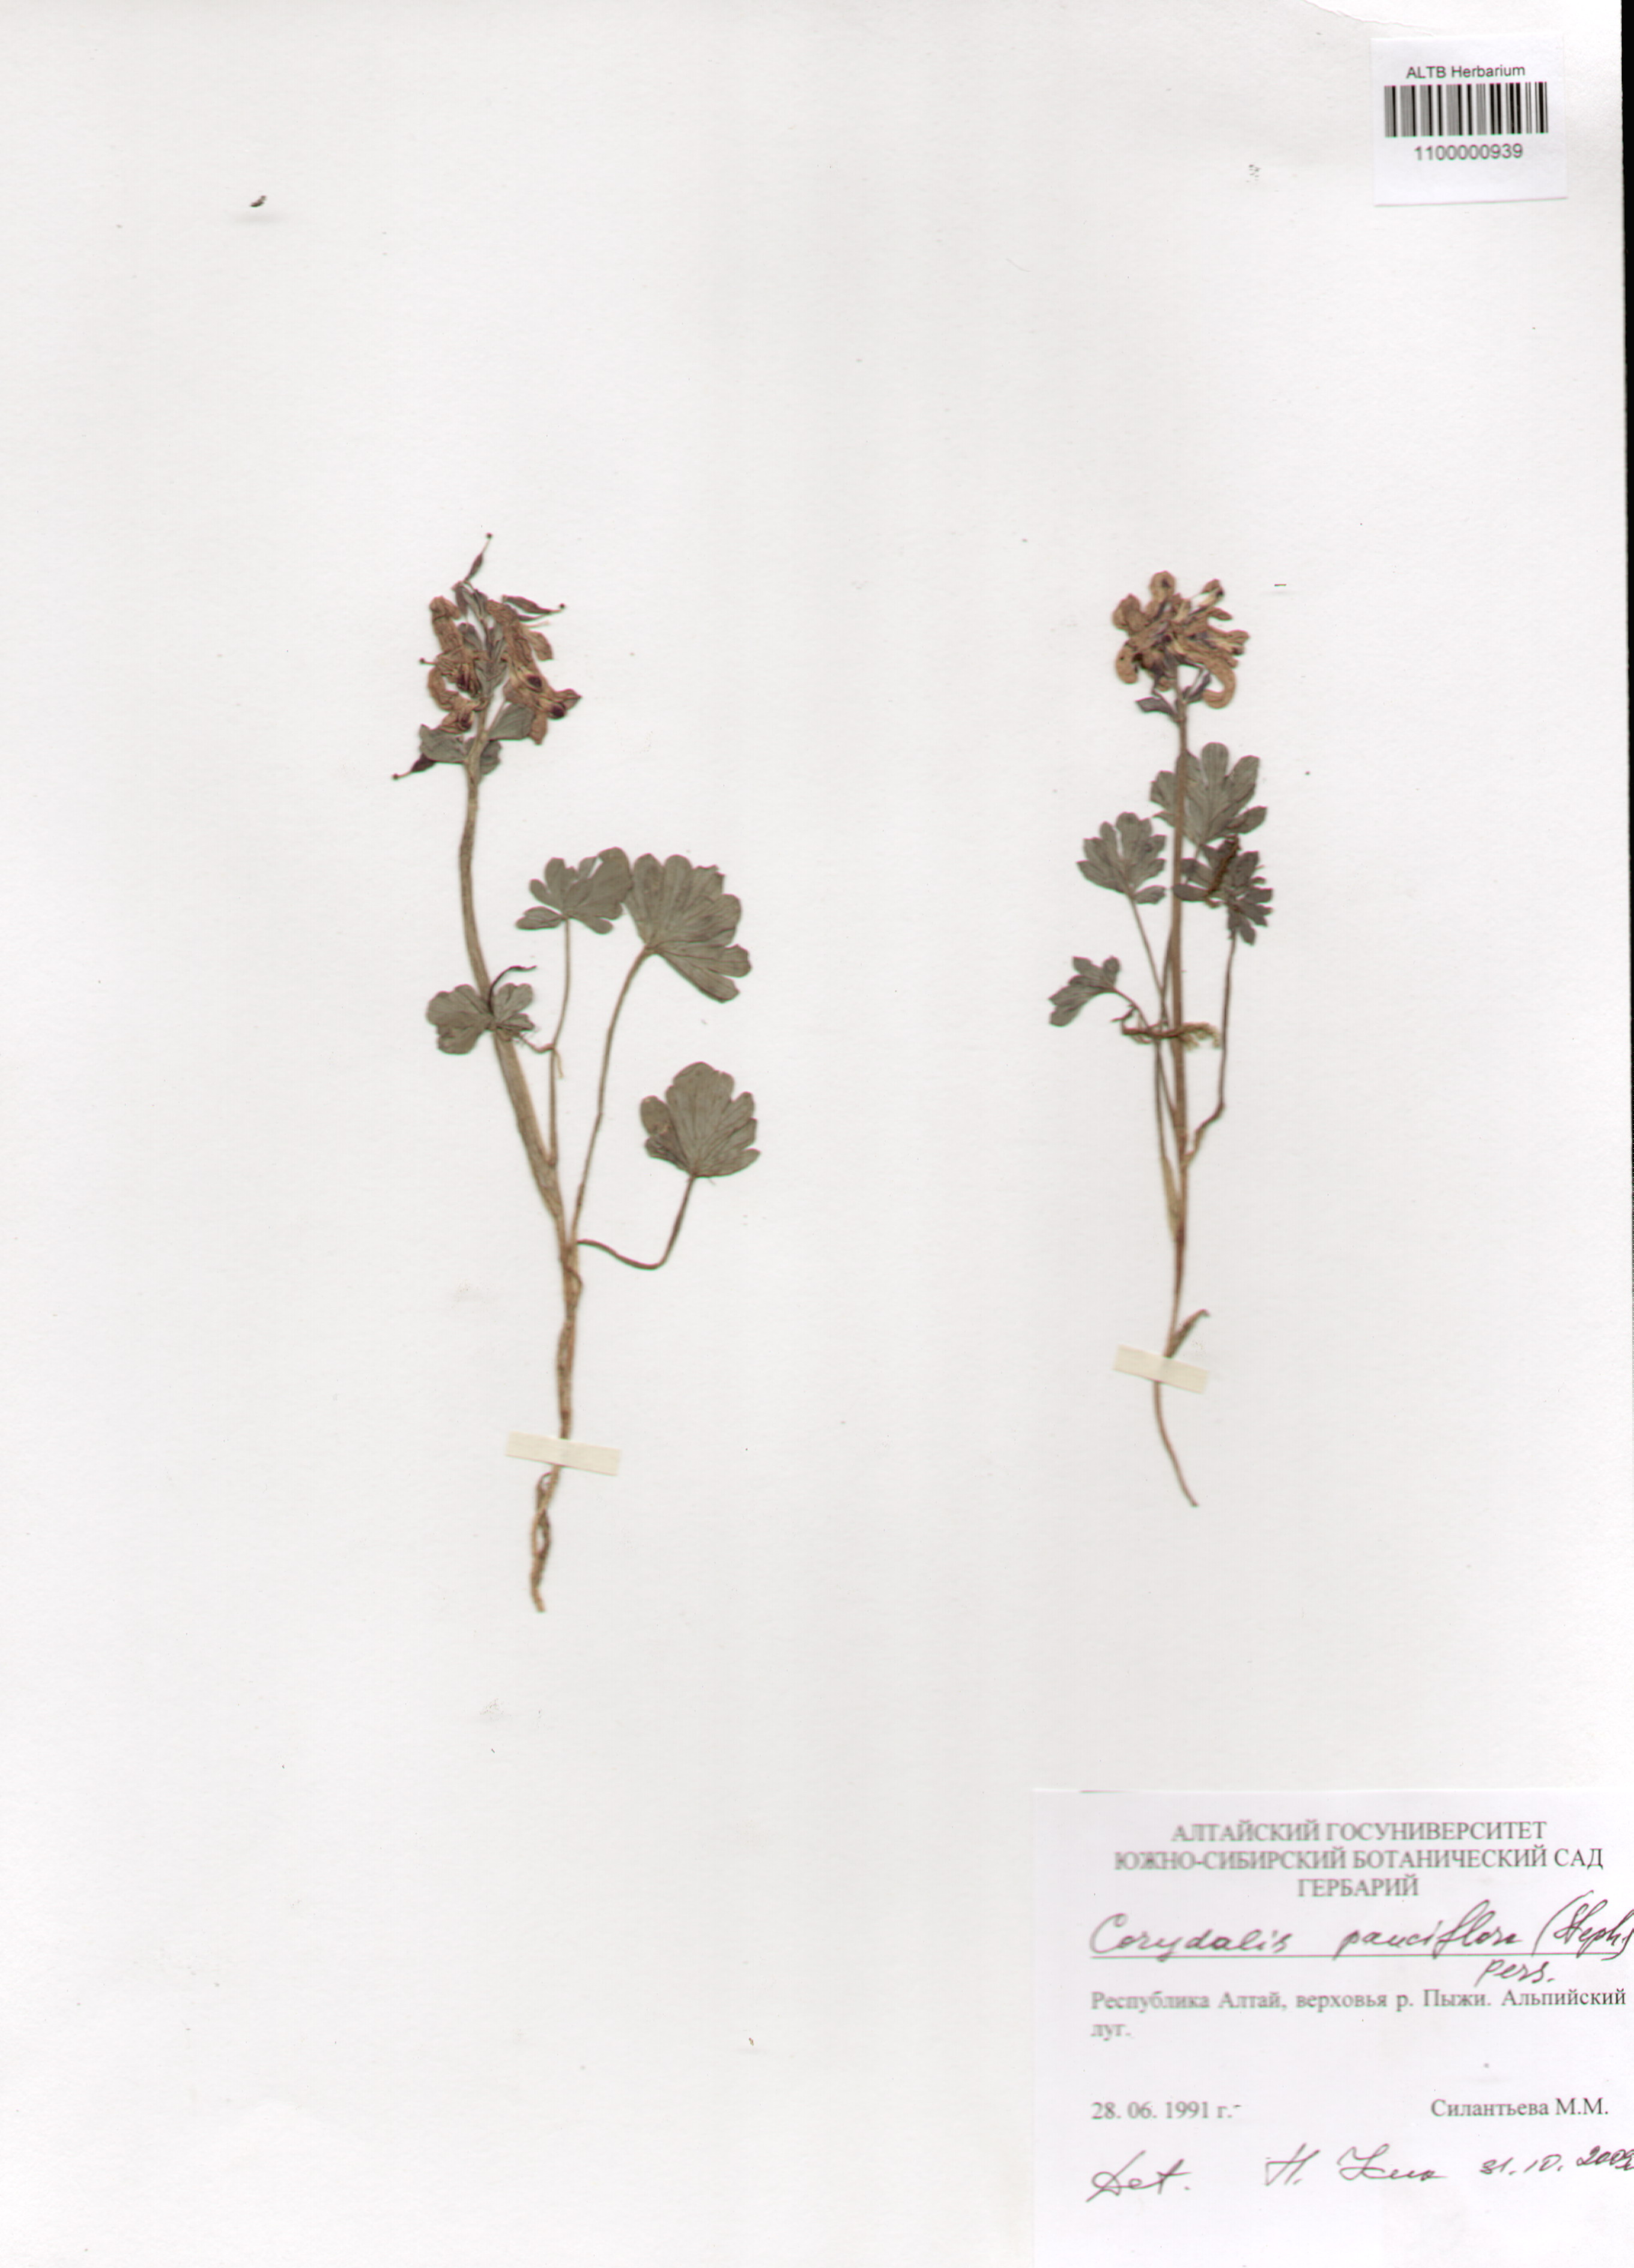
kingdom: Plantae
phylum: Tracheophyta
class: Magnoliopsida
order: Ranunculales
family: Papaveraceae
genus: Corydalis
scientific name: Corydalis pauciflora
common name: Blue corydalis
